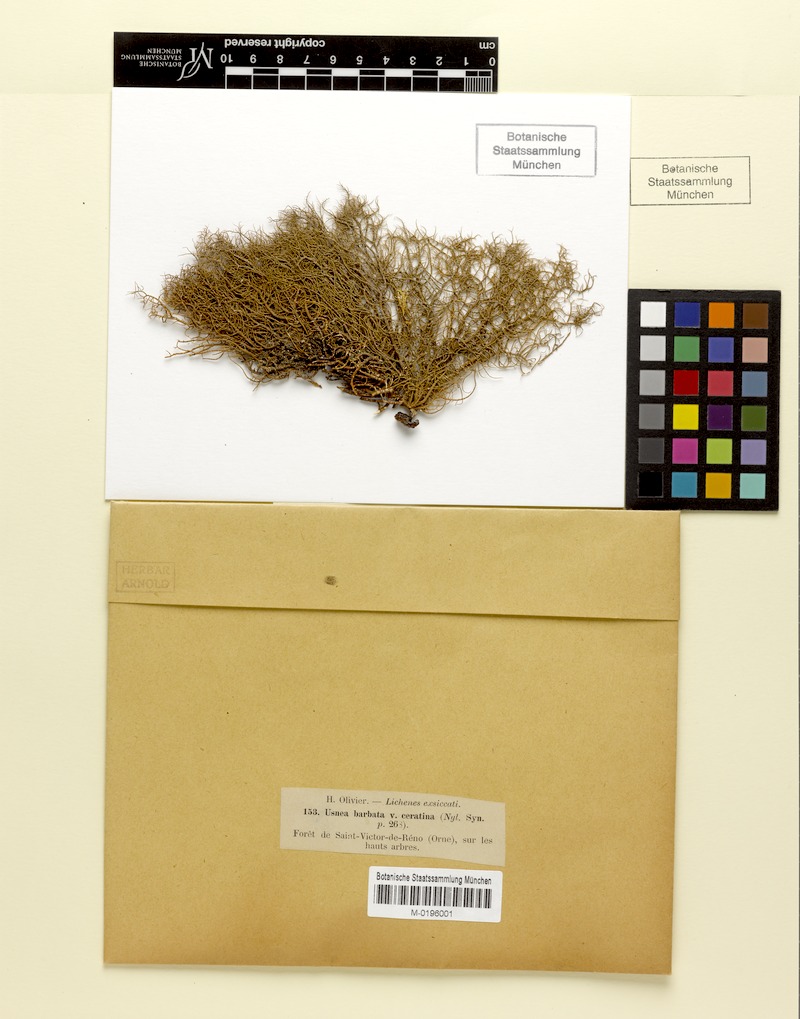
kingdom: Fungi
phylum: Ascomycota
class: Lecanoromycetes
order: Lecanorales
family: Parmeliaceae
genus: Usnea
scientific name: Usnea ceratina
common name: Warty beard lichen
